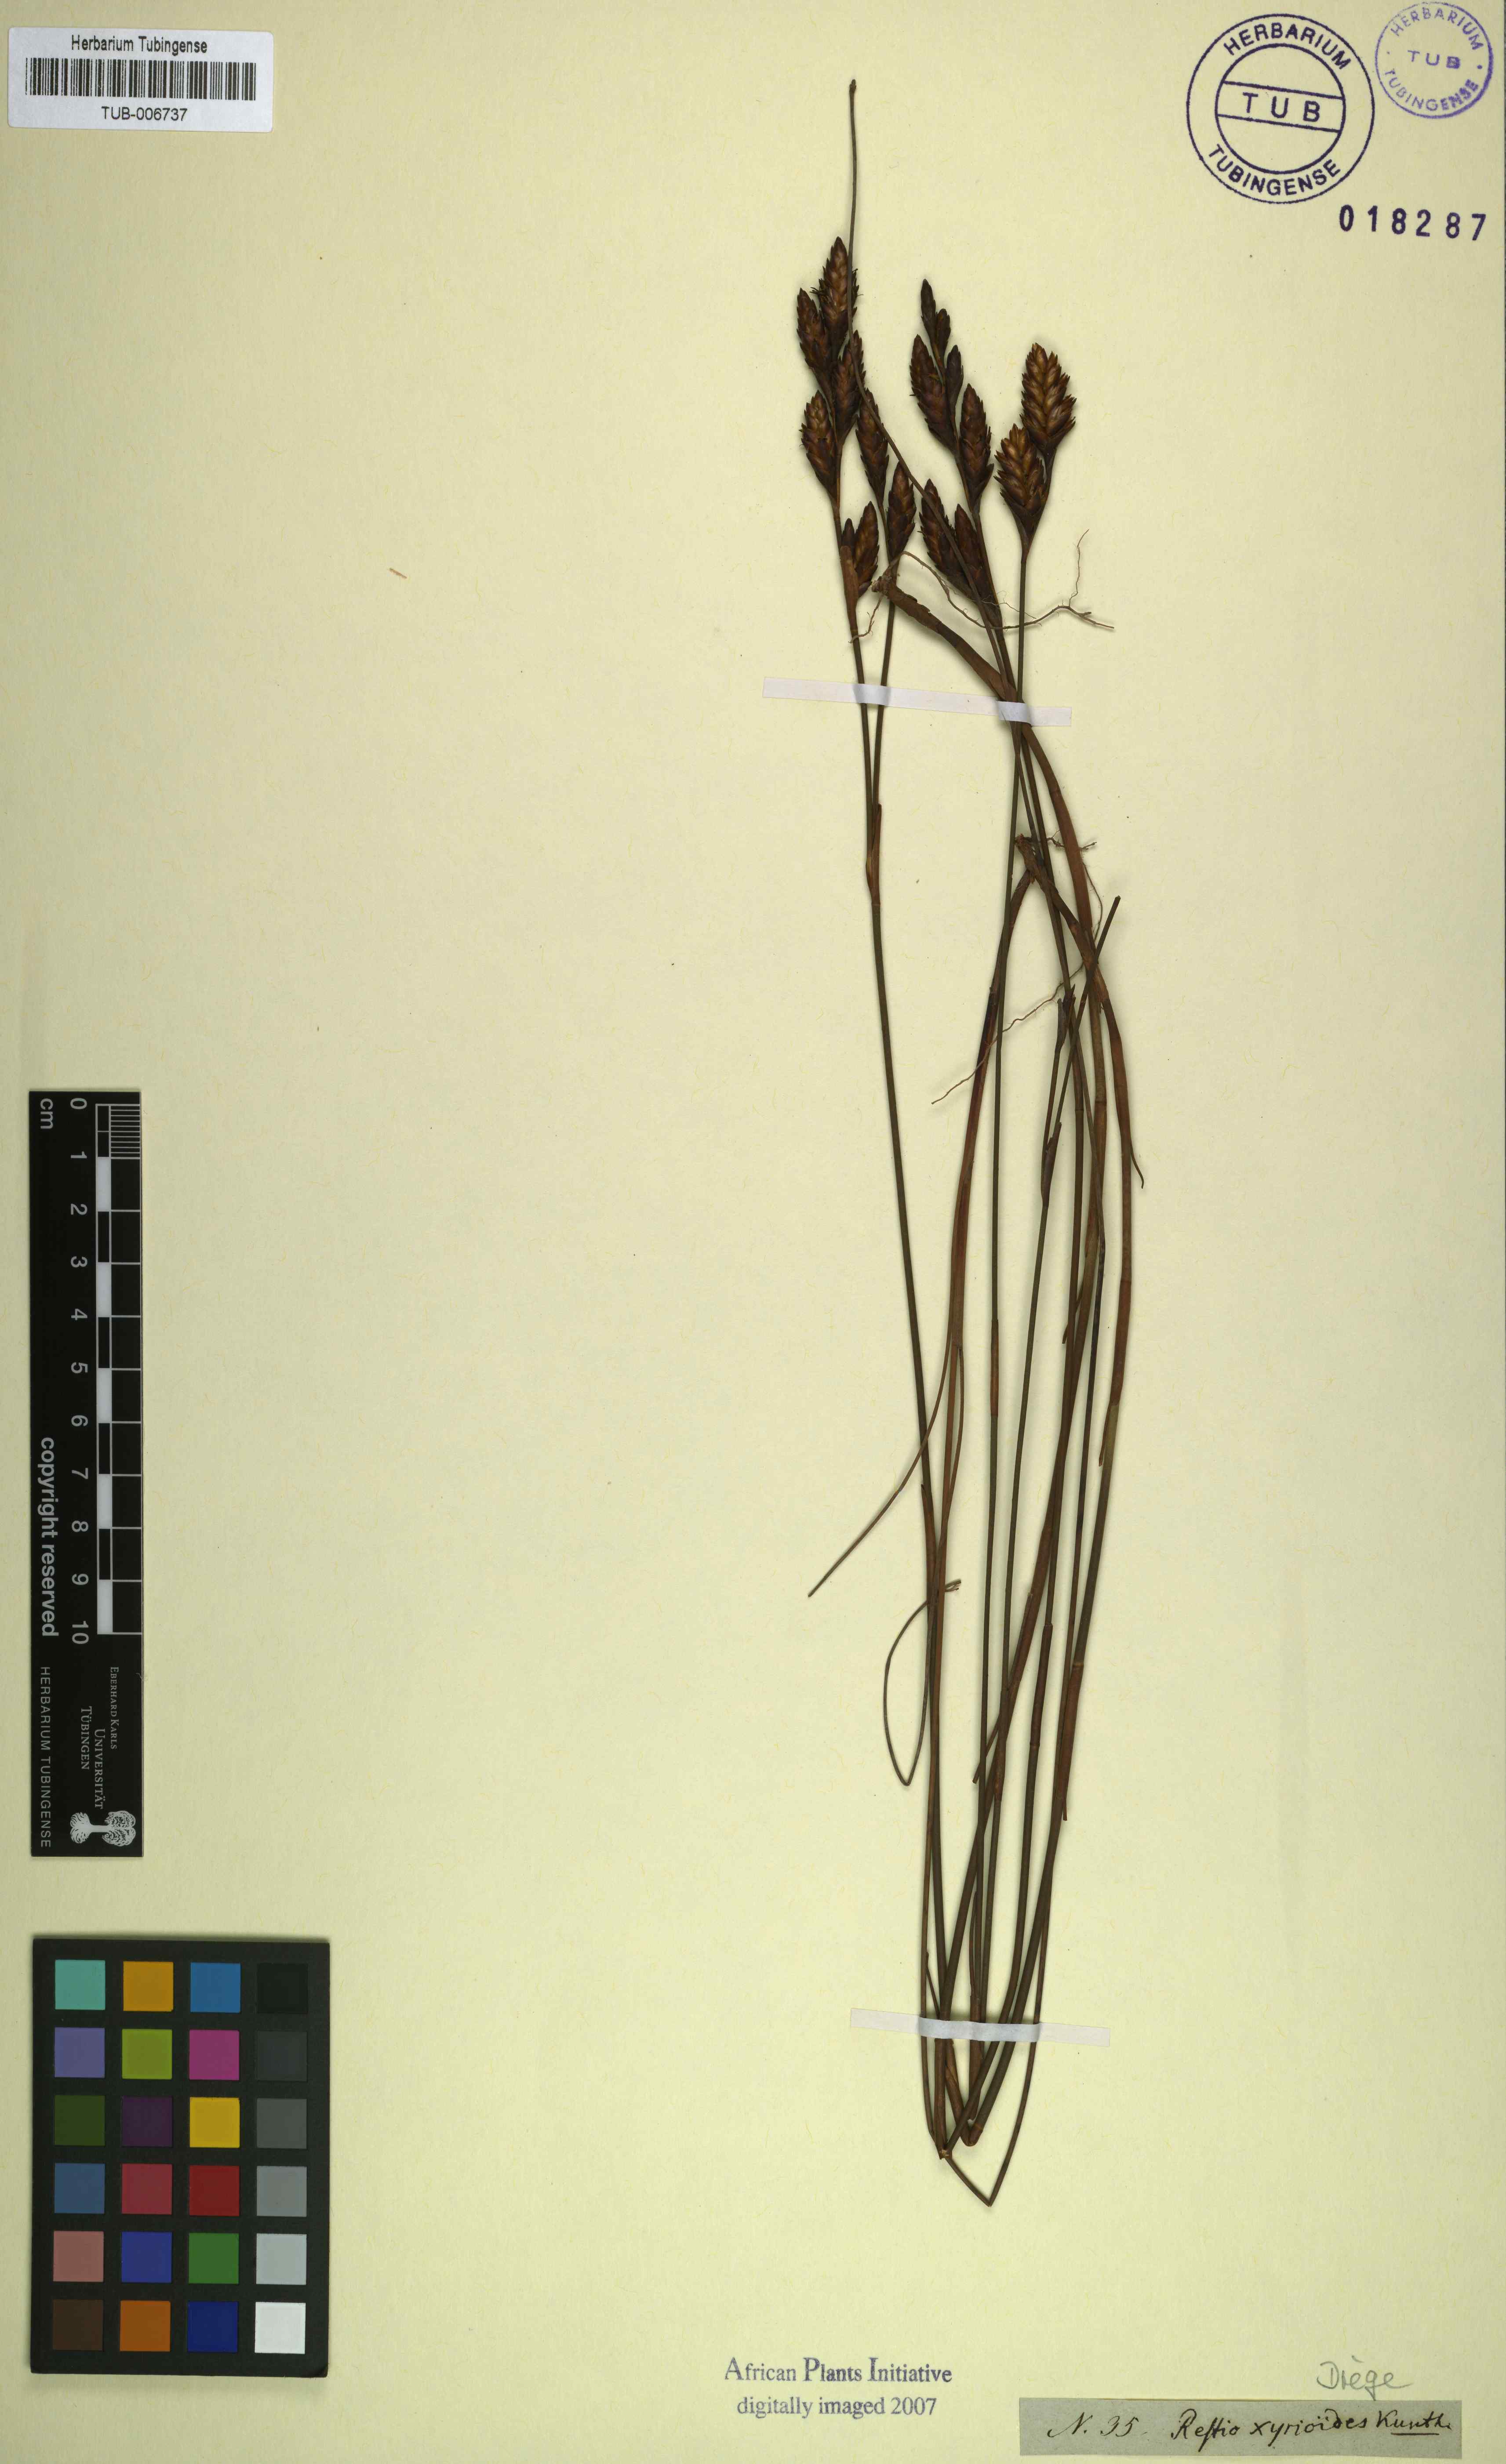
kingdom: Plantae
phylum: Tracheophyta
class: Liliopsida
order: Poales
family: Restionaceae
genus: Restio
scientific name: Restio quinquefarius
